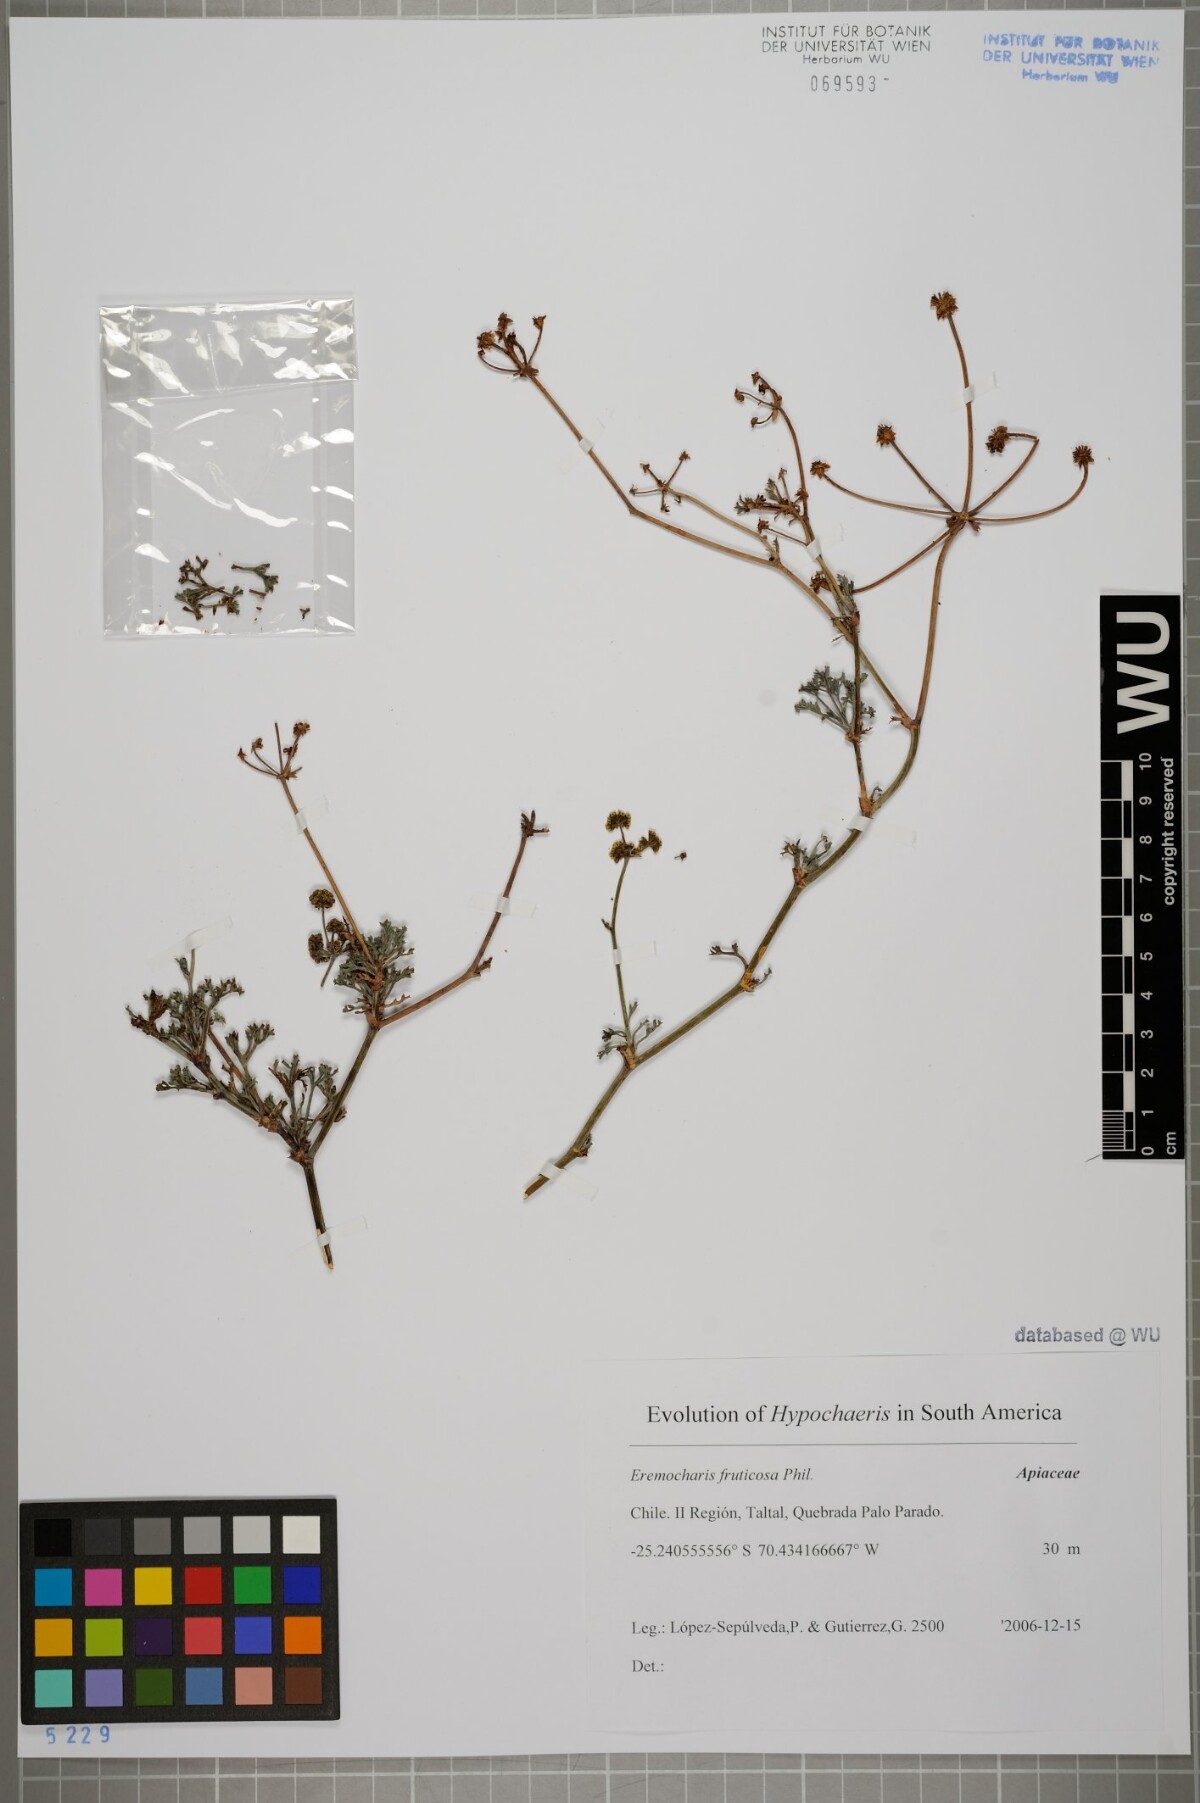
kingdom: Plantae
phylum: Tracheophyta
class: Magnoliopsida
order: Apiales
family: Apiaceae
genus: Eremocharis
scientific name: Eremocharis fruticosa
